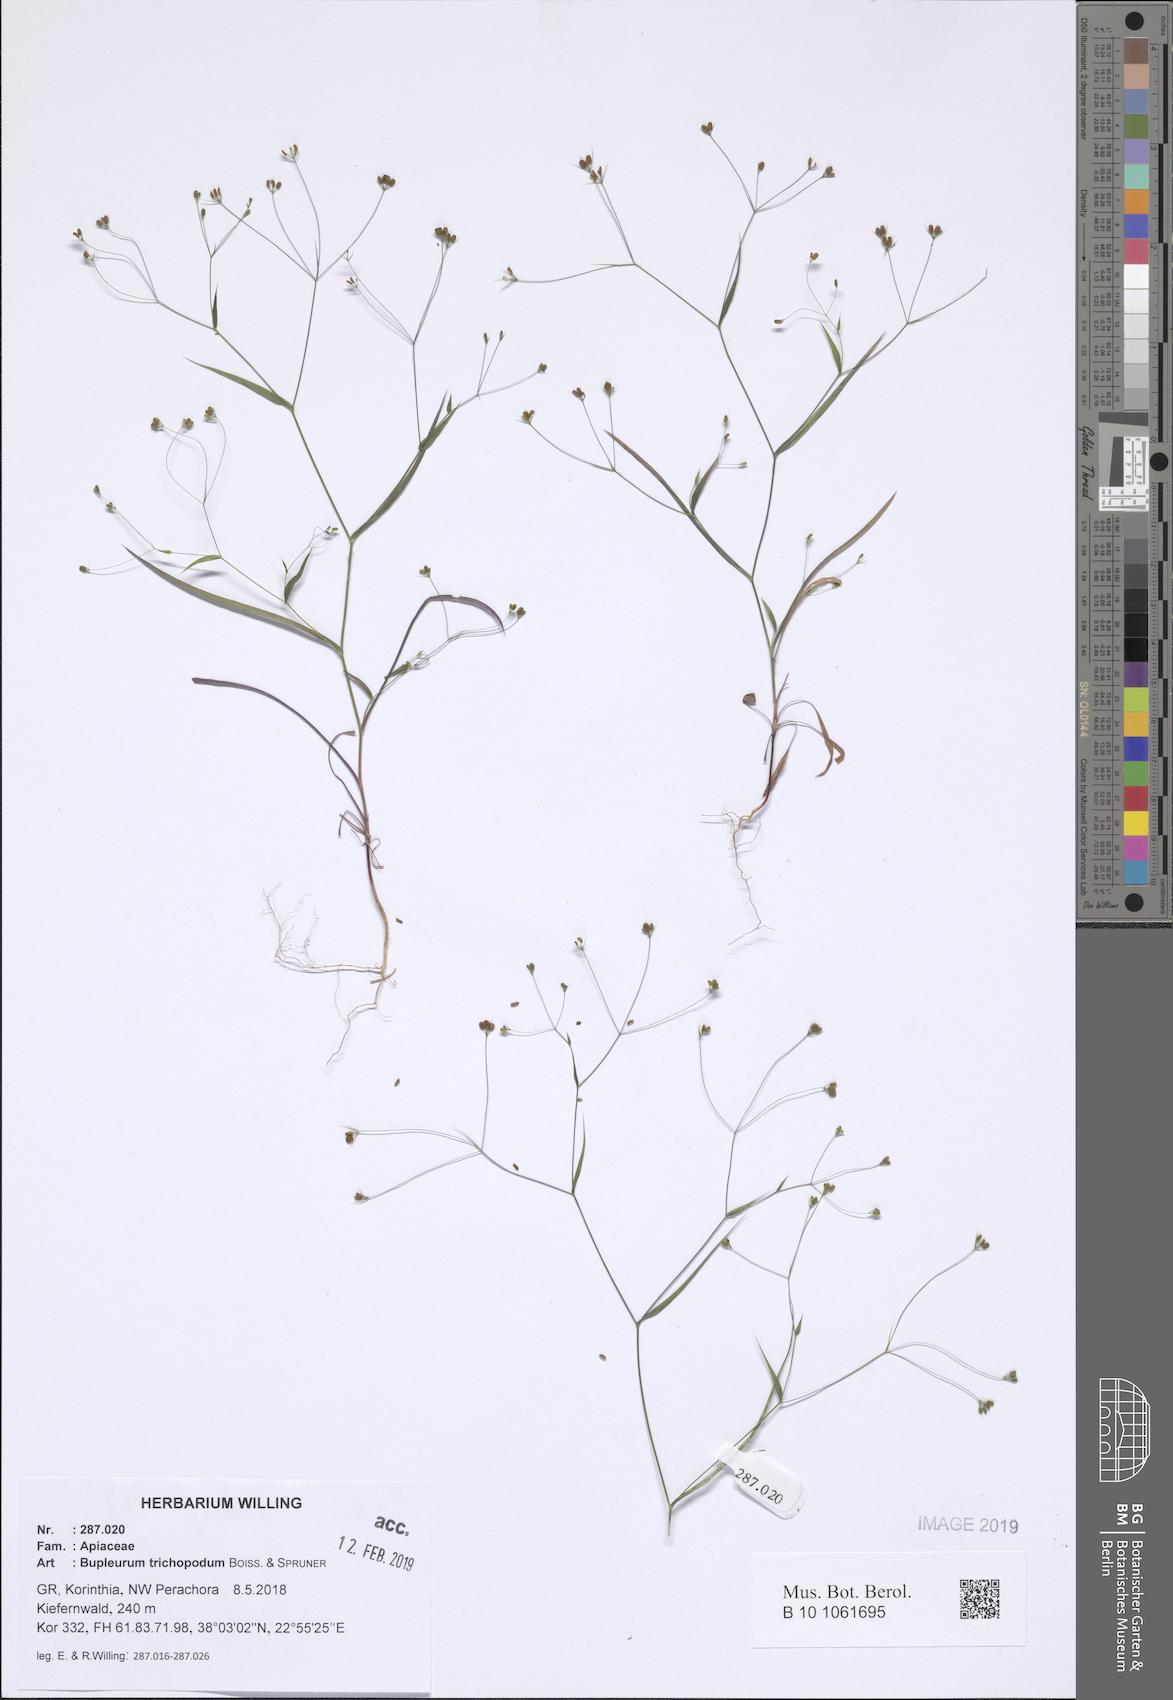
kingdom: Plantae
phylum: Tracheophyta
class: Magnoliopsida
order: Apiales
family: Apiaceae
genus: Bupleurum
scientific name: Bupleurum trichopodum
